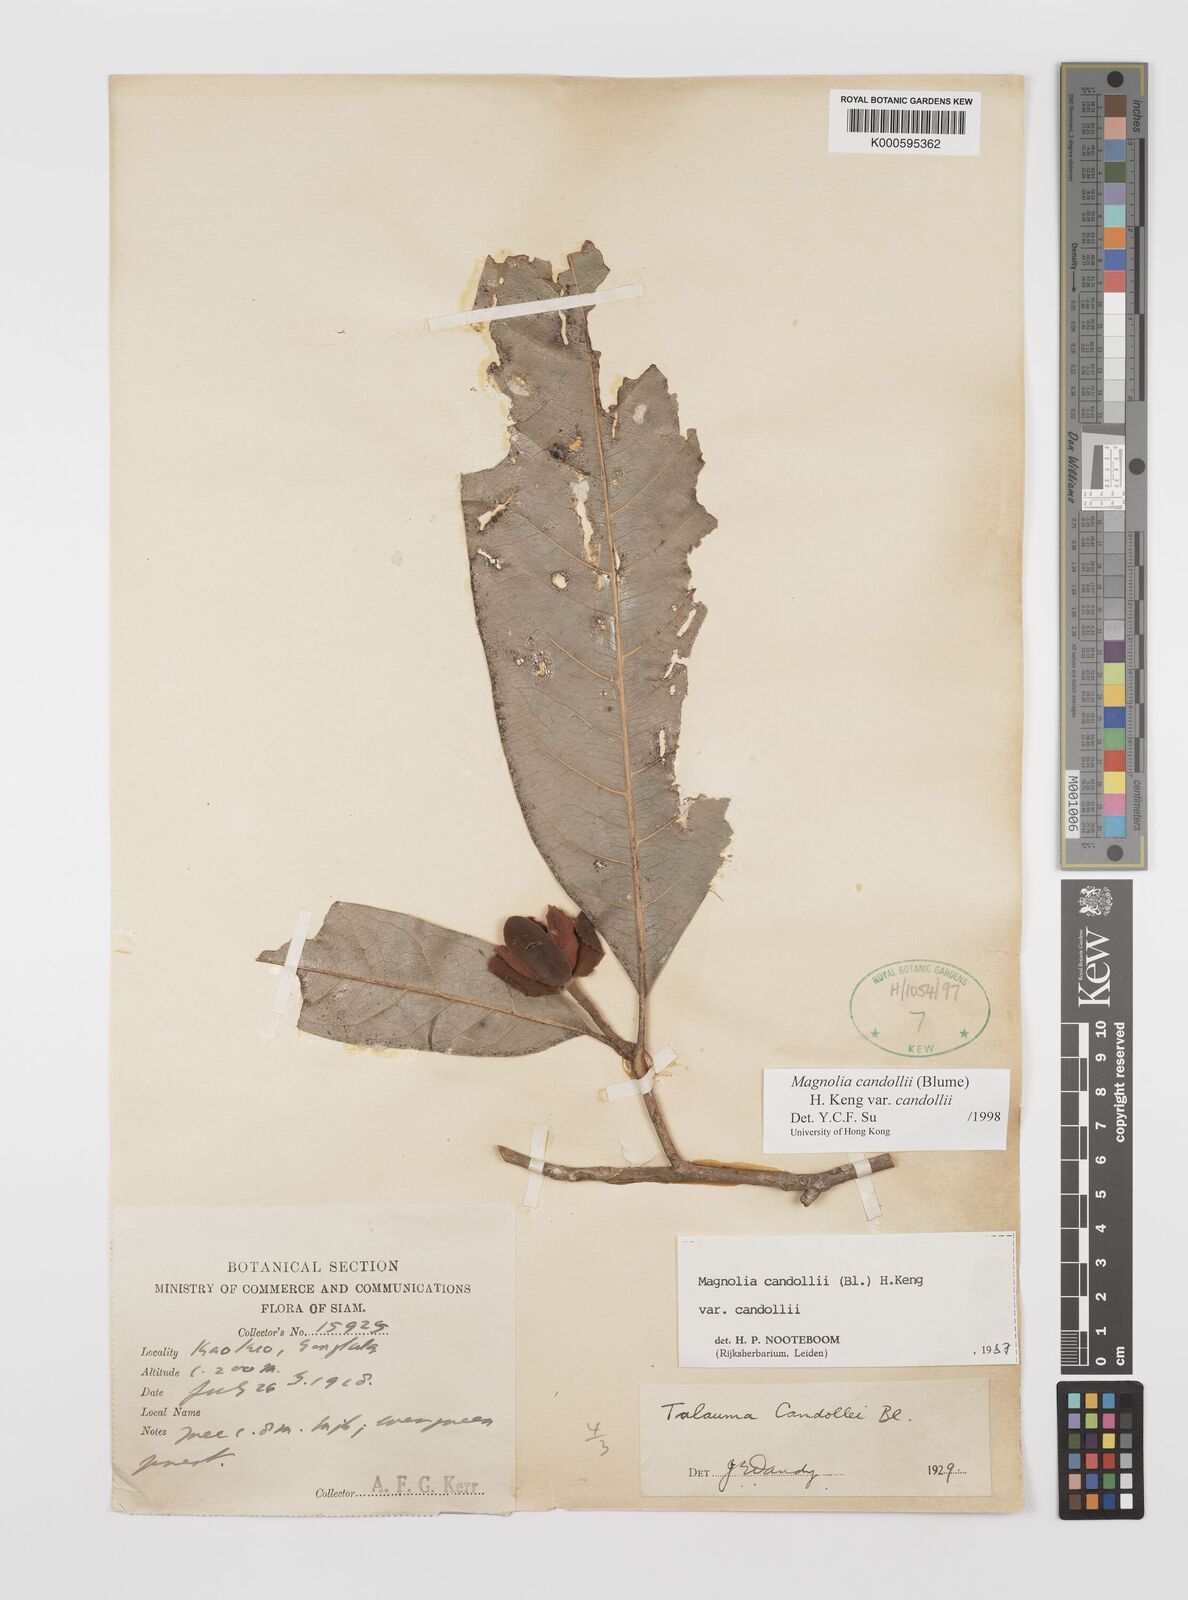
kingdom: Plantae
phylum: Tracheophyta
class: Magnoliopsida
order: Magnoliales
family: Magnoliaceae
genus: Magnolia
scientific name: Magnolia liliifera
